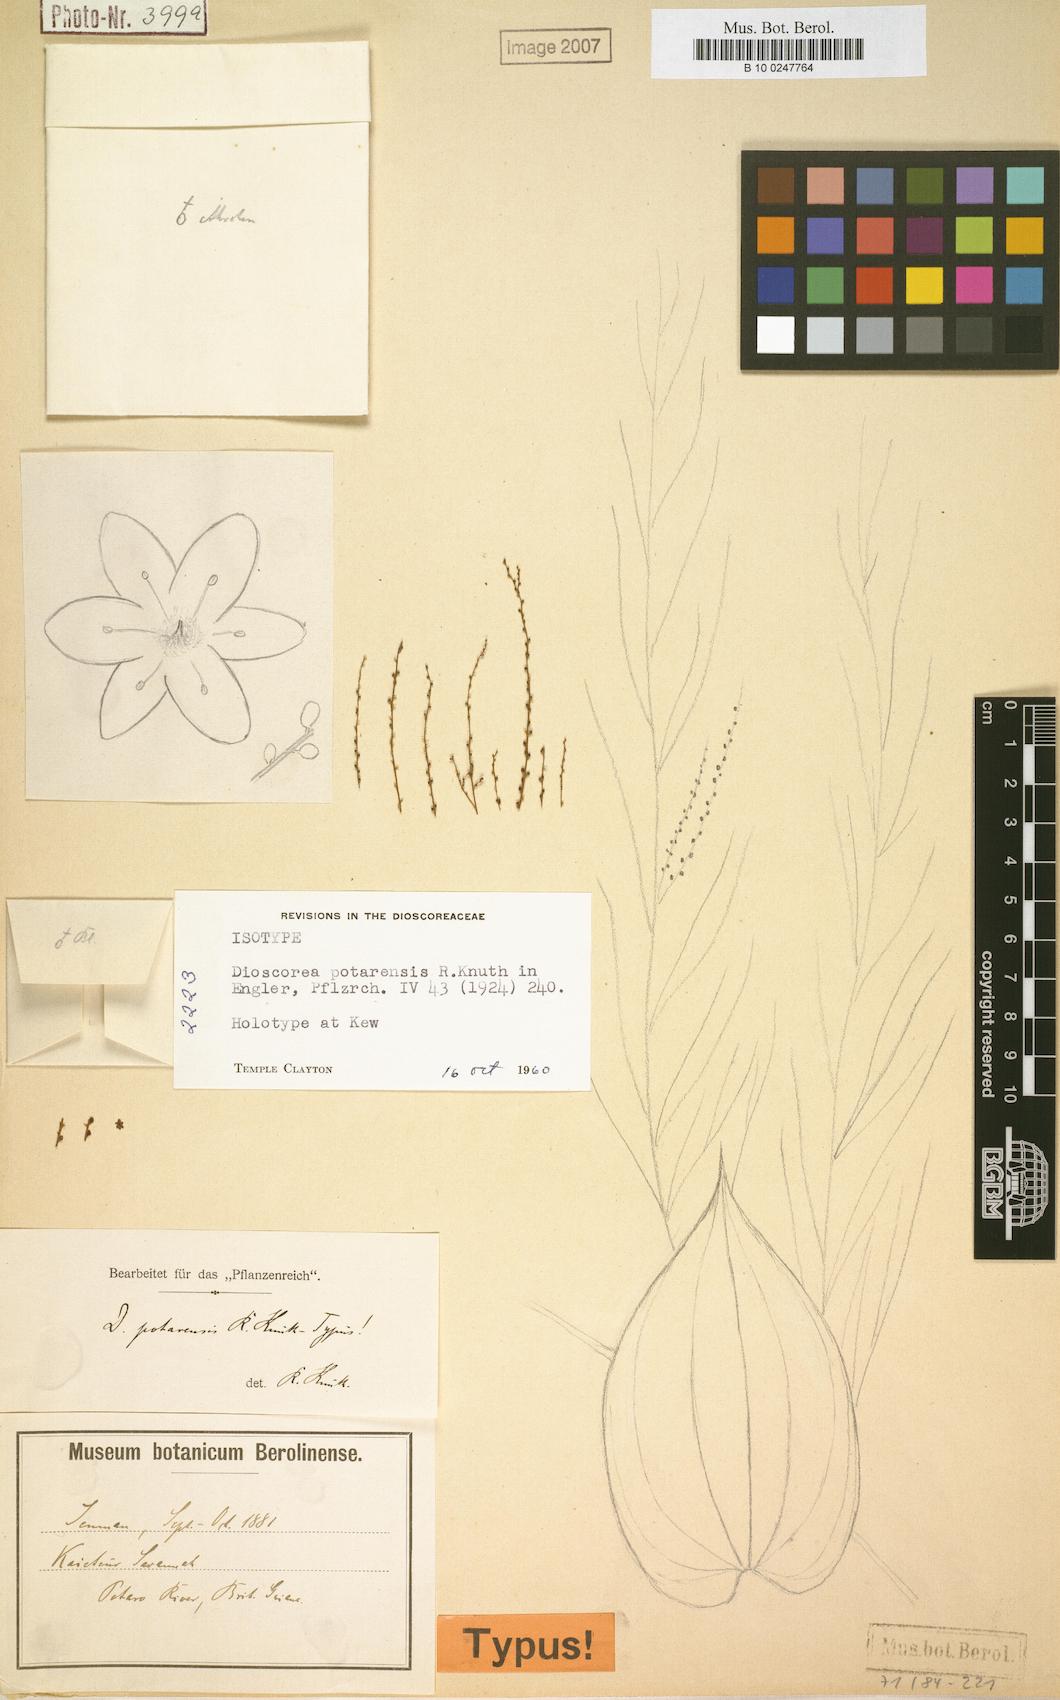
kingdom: Plantae
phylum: Tracheophyta
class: Liliopsida
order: Dioscoreales
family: Dioscoreaceae
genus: Dioscorea
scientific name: Dioscorea potarensis
